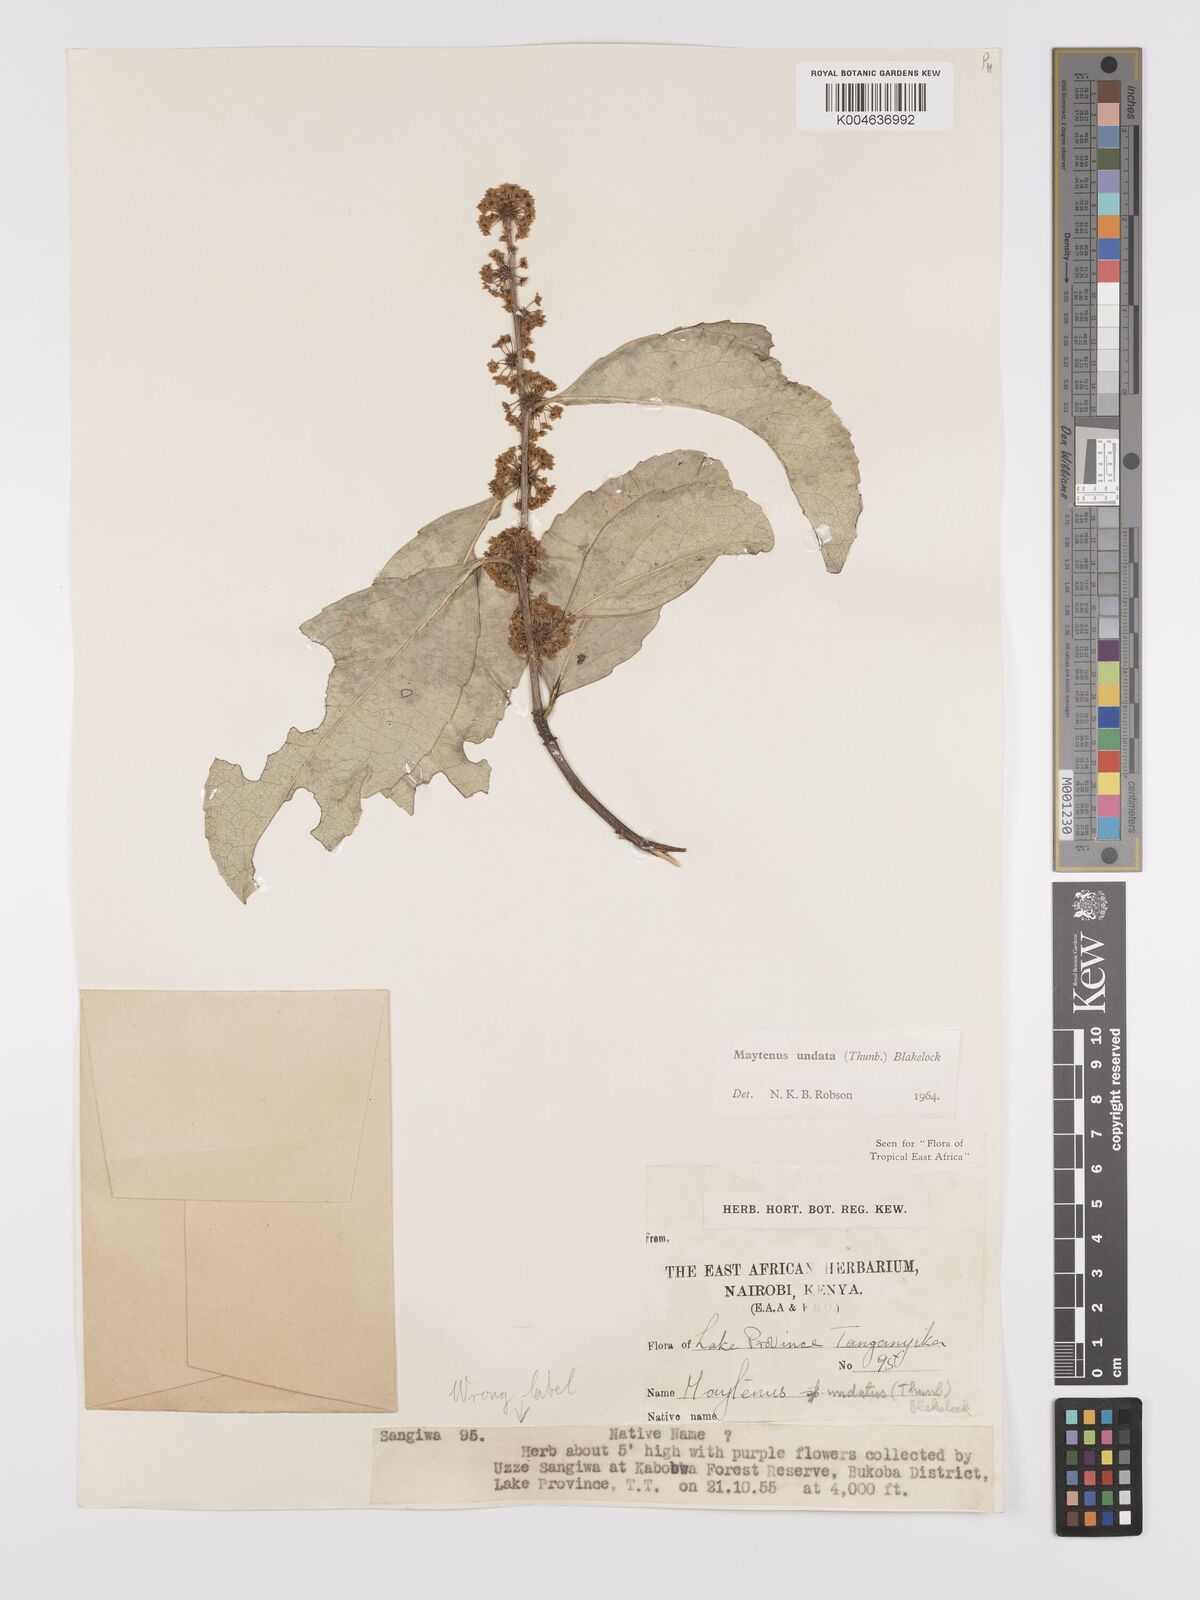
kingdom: Plantae
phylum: Tracheophyta
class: Magnoliopsida
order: Celastrales
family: Celastraceae
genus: Gymnosporia
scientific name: Gymnosporia undata
